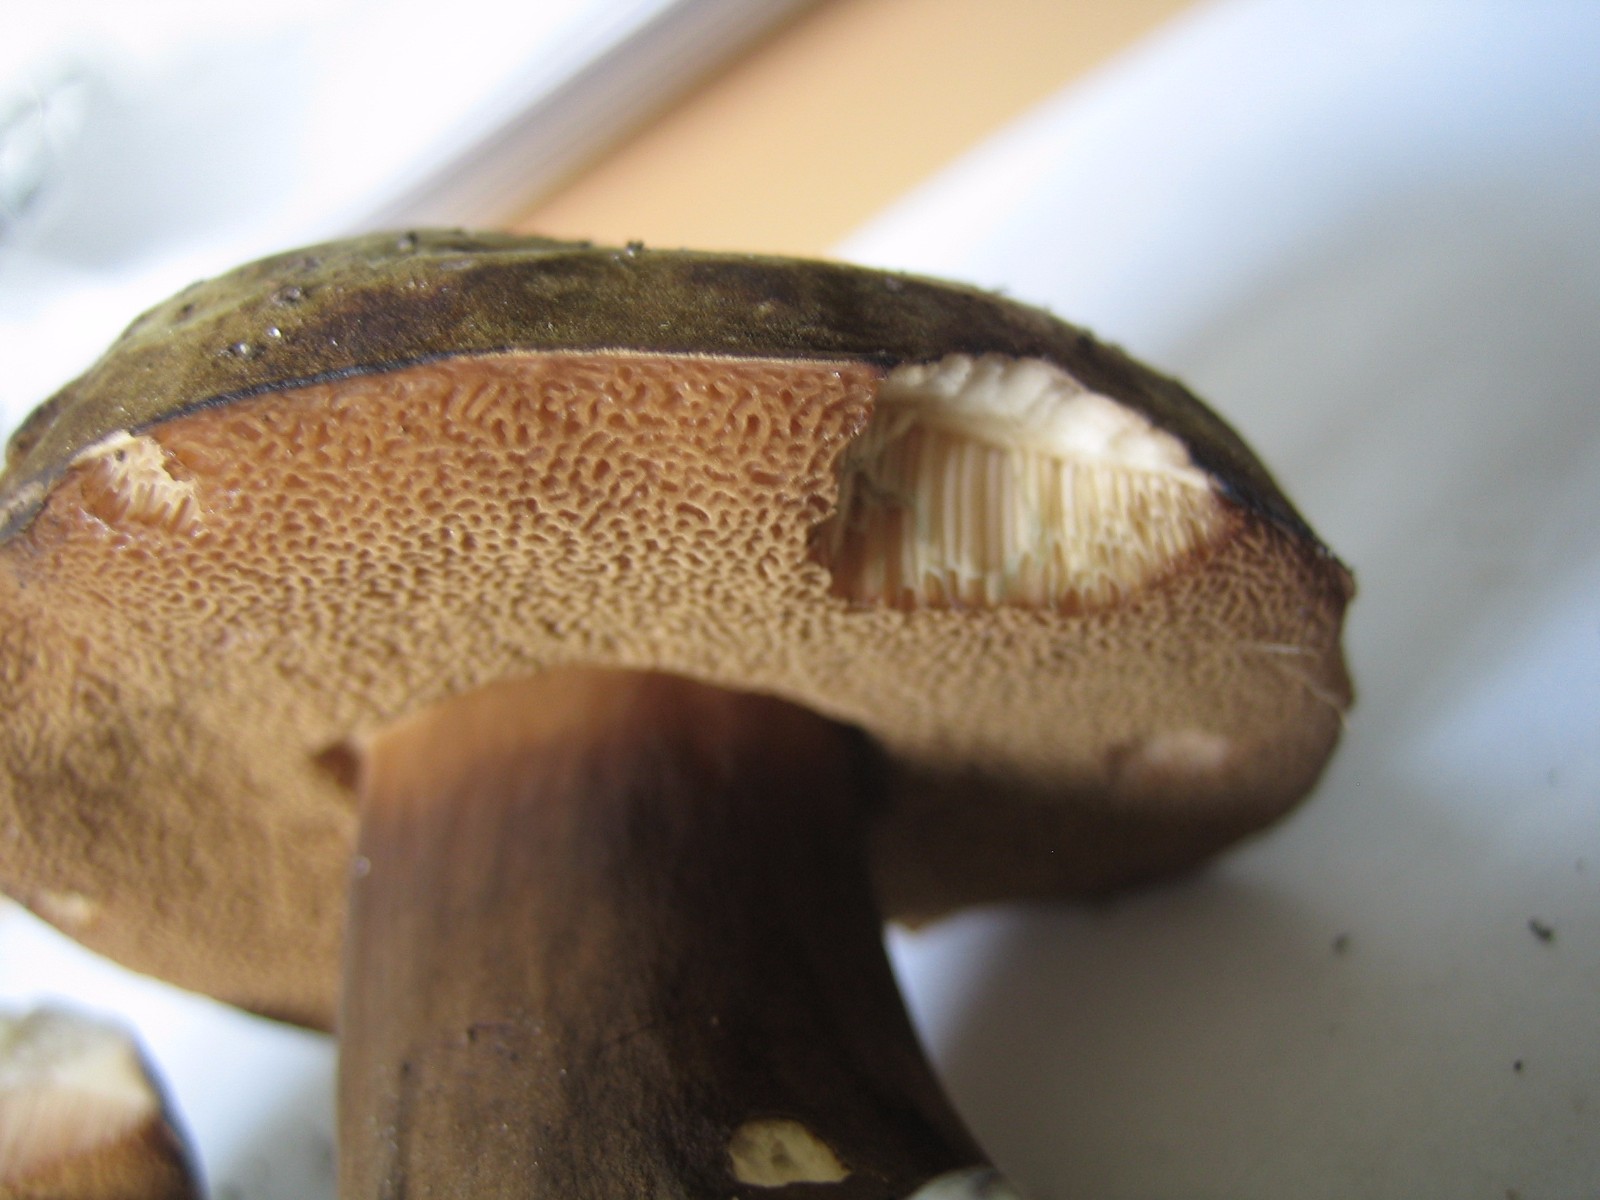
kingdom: Fungi
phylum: Basidiomycota
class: Agaricomycetes
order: Boletales
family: Boletaceae
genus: Porphyrellus
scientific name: Porphyrellus porphyrosporus
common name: sodrørhat
